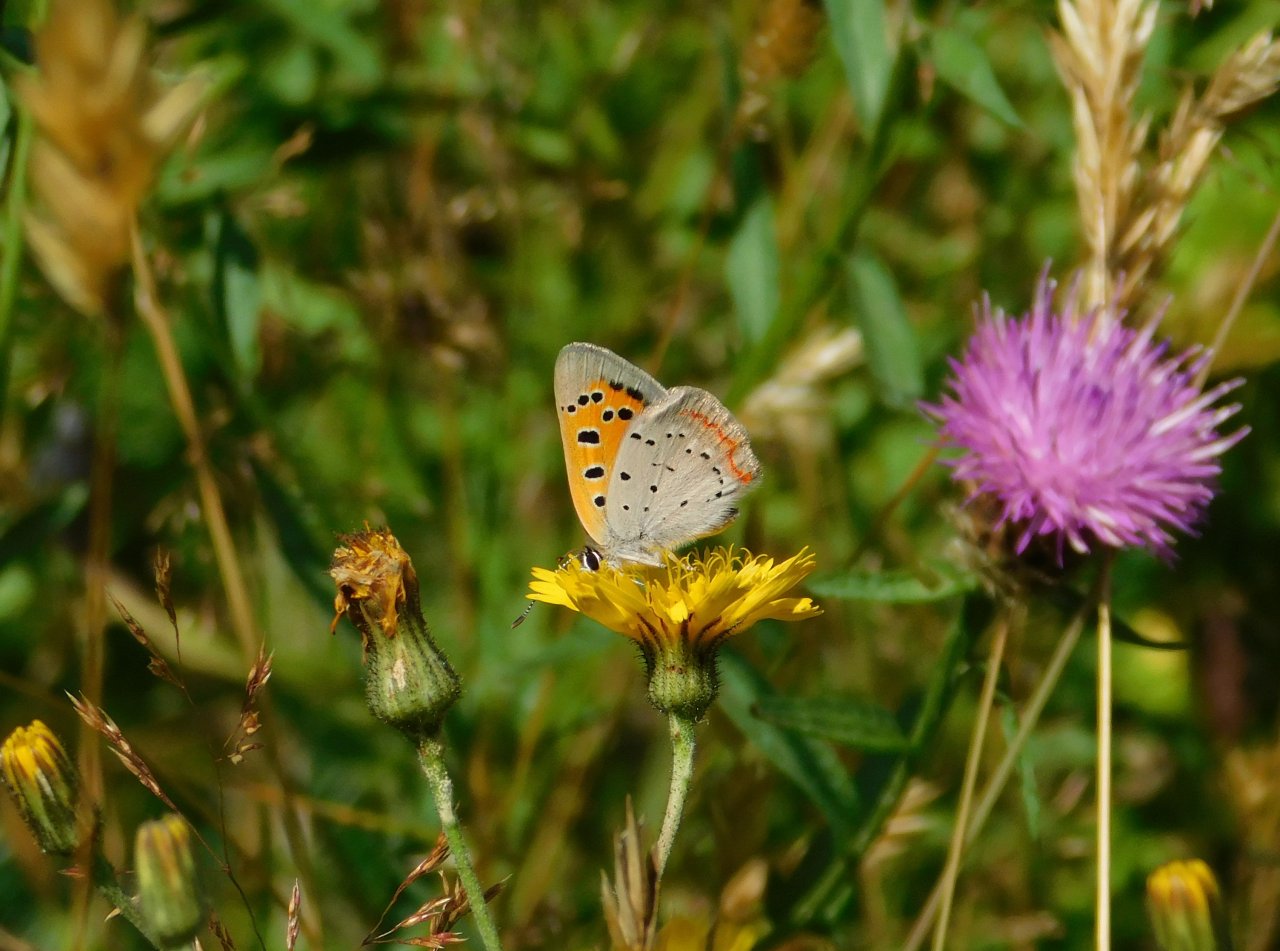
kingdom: Animalia
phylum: Arthropoda
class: Insecta
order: Lepidoptera
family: Lycaenidae
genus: Lycaena
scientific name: Lycaena phlaeas
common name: American Copper
